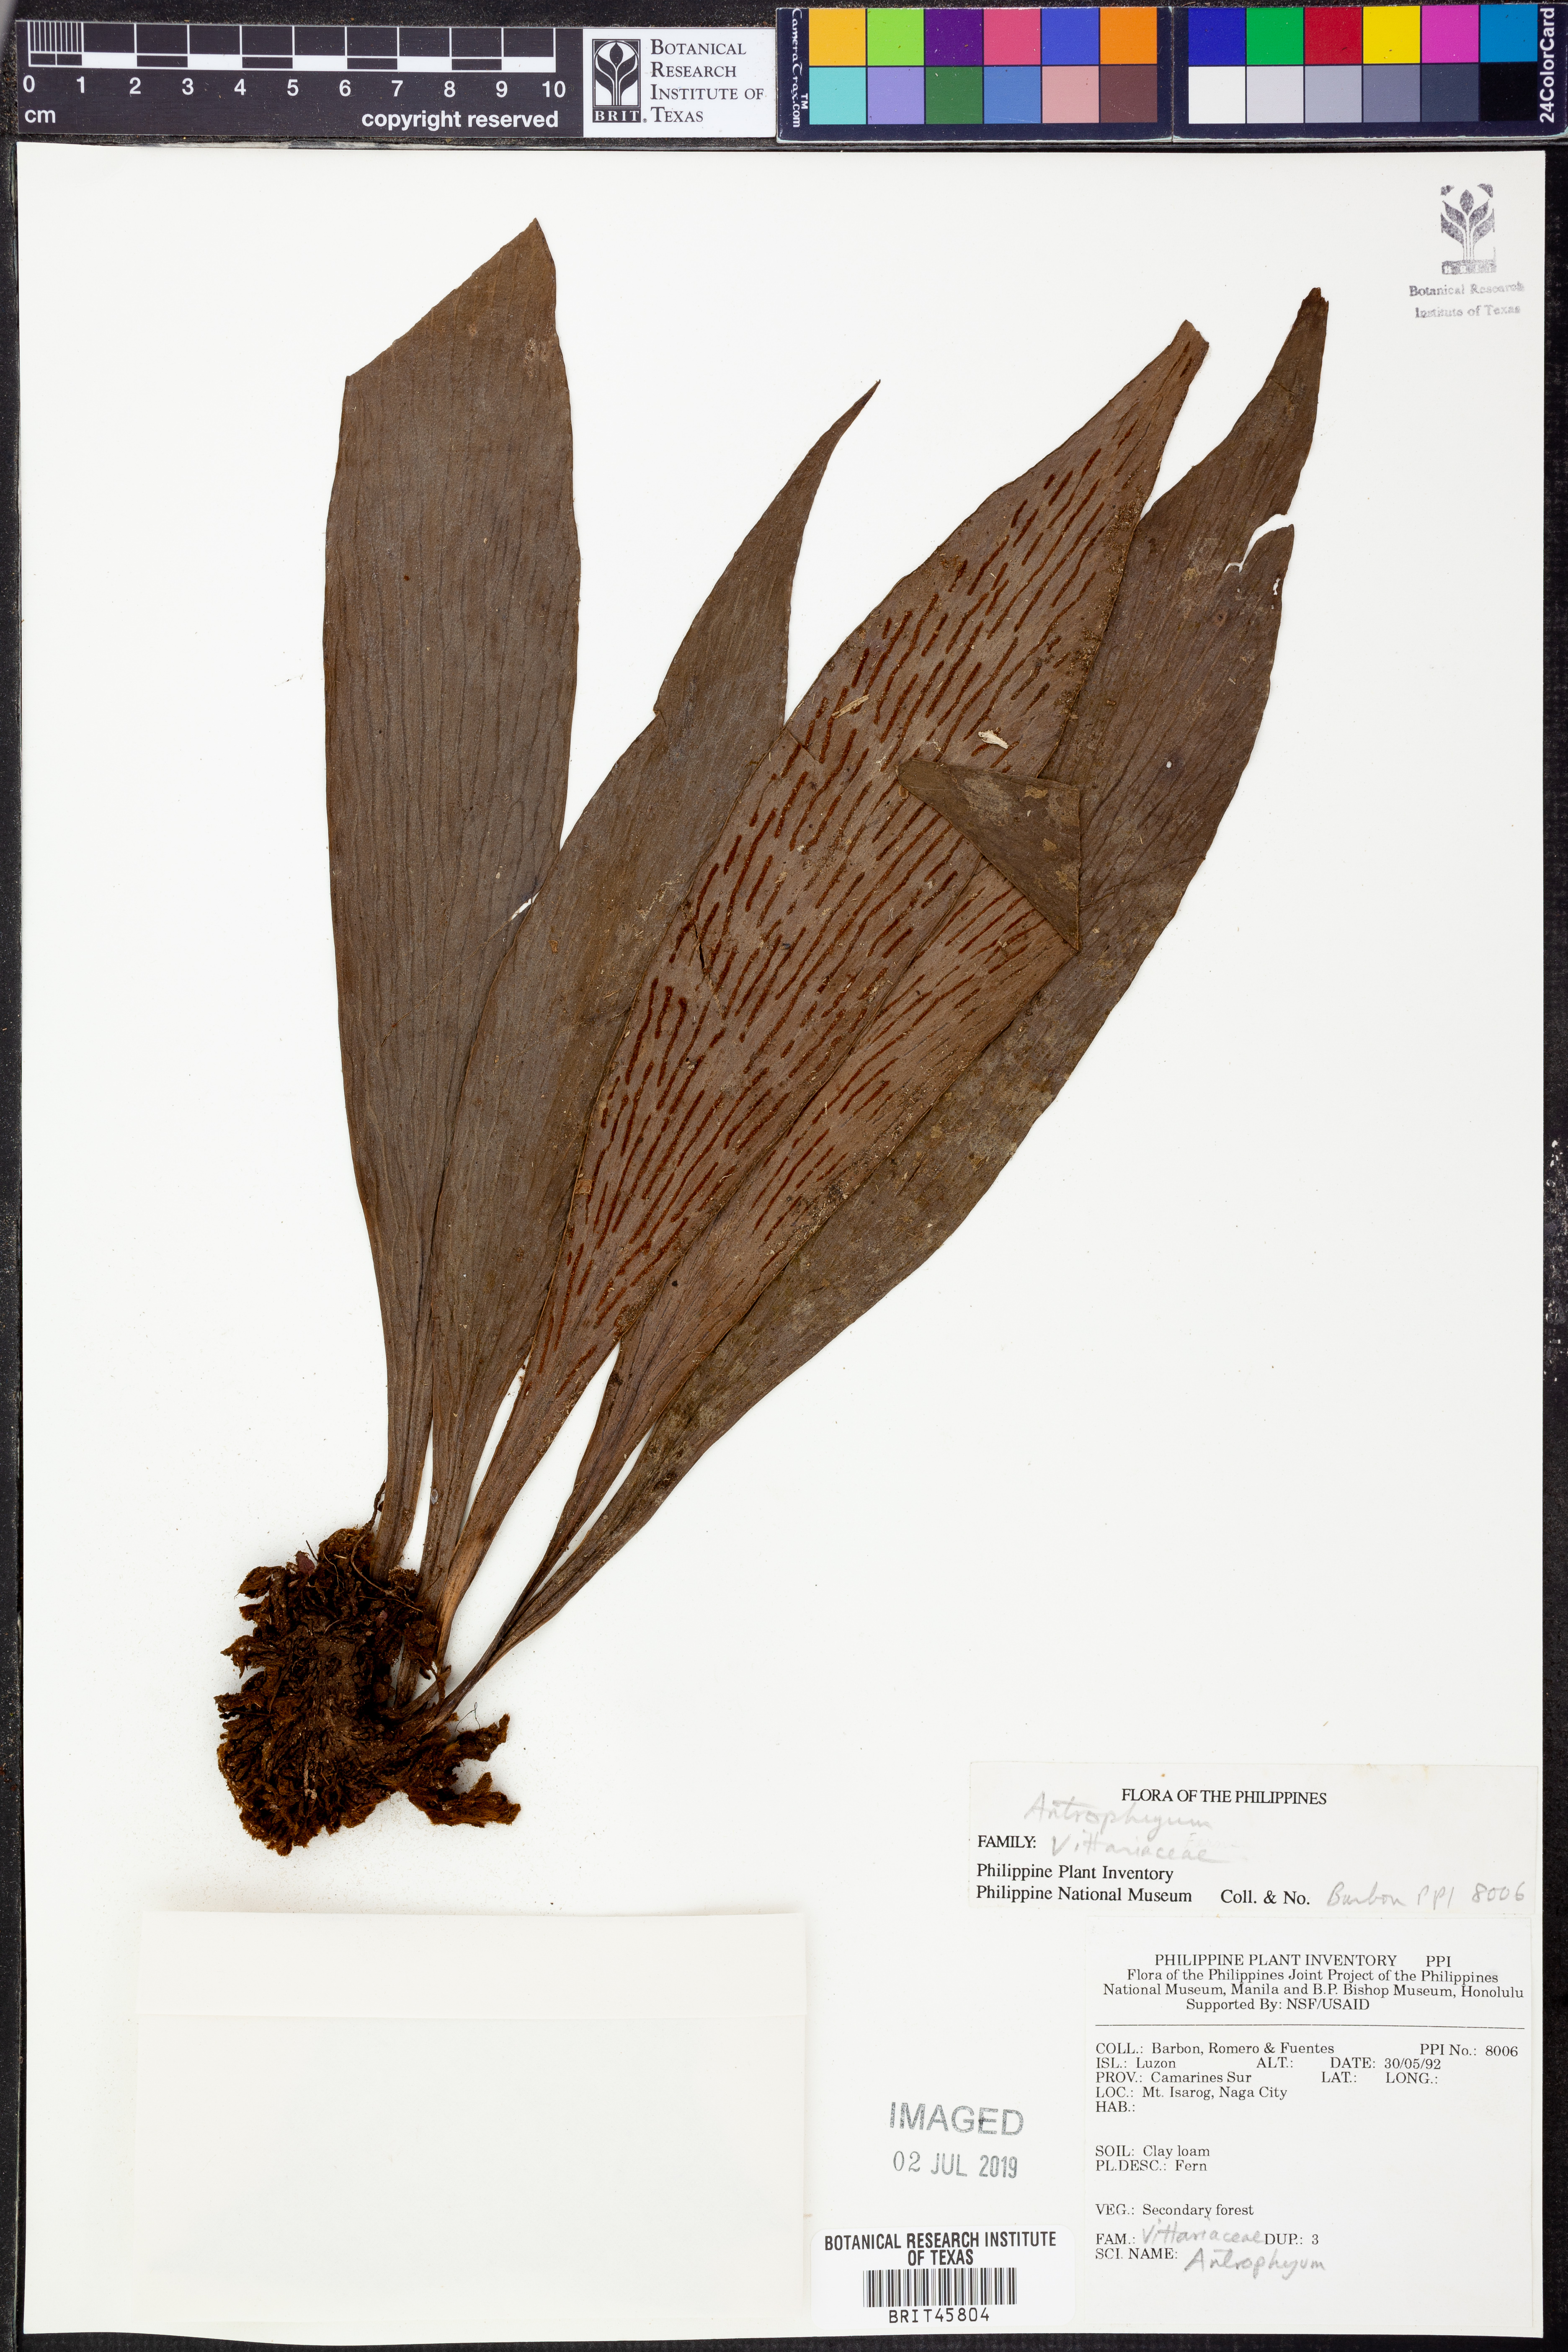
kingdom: Plantae
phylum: Tracheophyta
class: Polypodiopsida
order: Polypodiales
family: Pteridaceae
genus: Antrophyum
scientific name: Antrophyum
